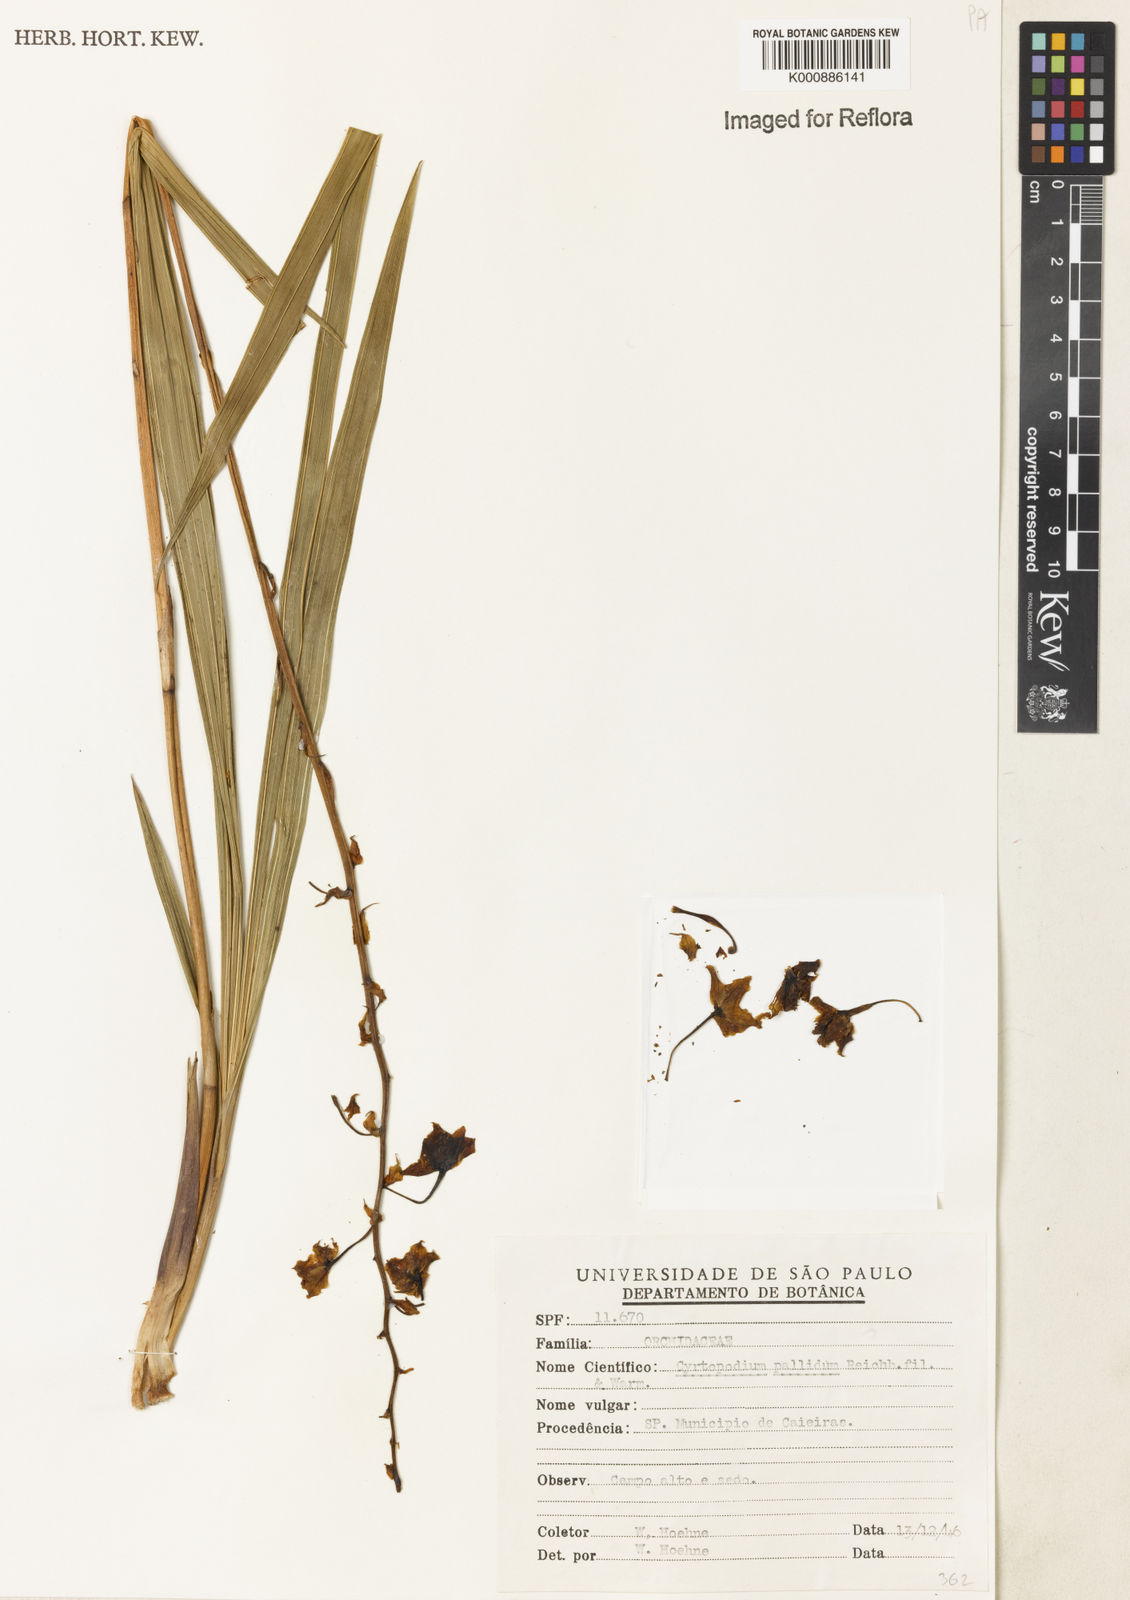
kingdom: Plantae
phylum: Tracheophyta
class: Liliopsida
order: Asparagales
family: Orchidaceae
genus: Cyrtopodium
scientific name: Cyrtopodium pallidum
